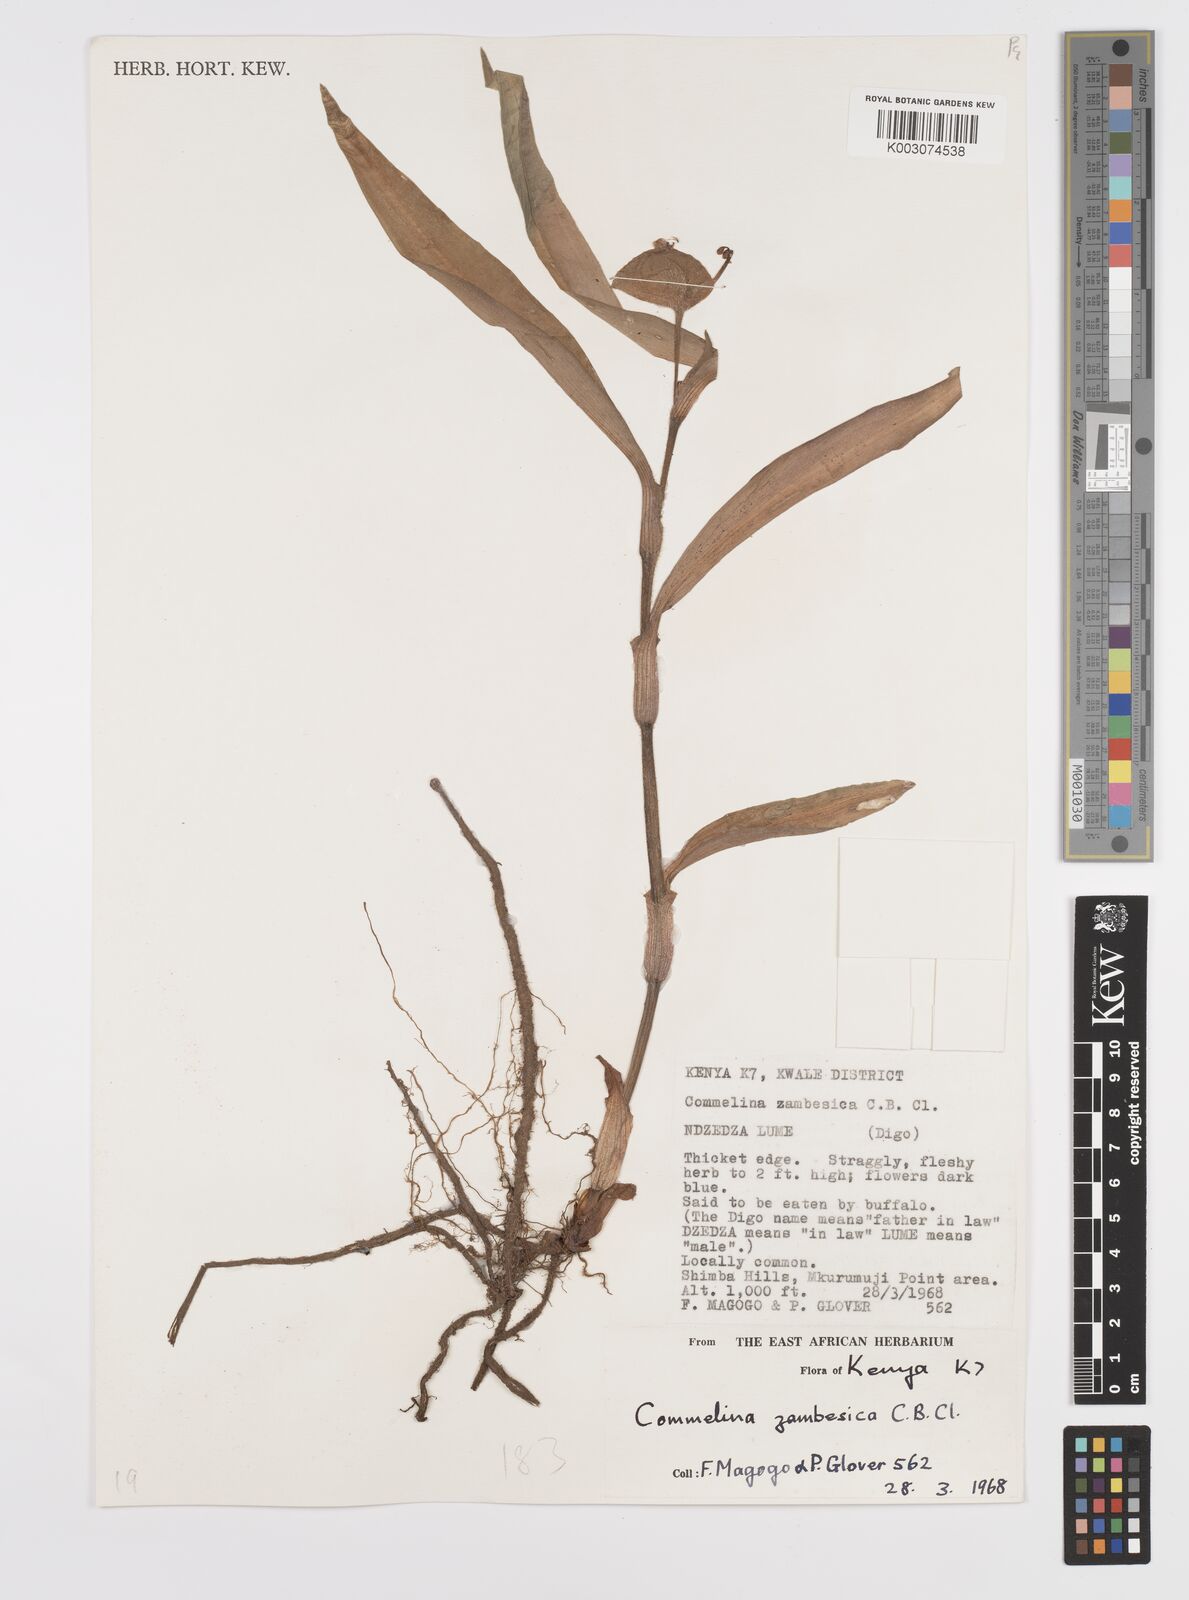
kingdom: Plantae
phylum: Tracheophyta
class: Liliopsida
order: Commelinales
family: Commelinaceae
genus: Commelina
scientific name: Commelina zambesica
